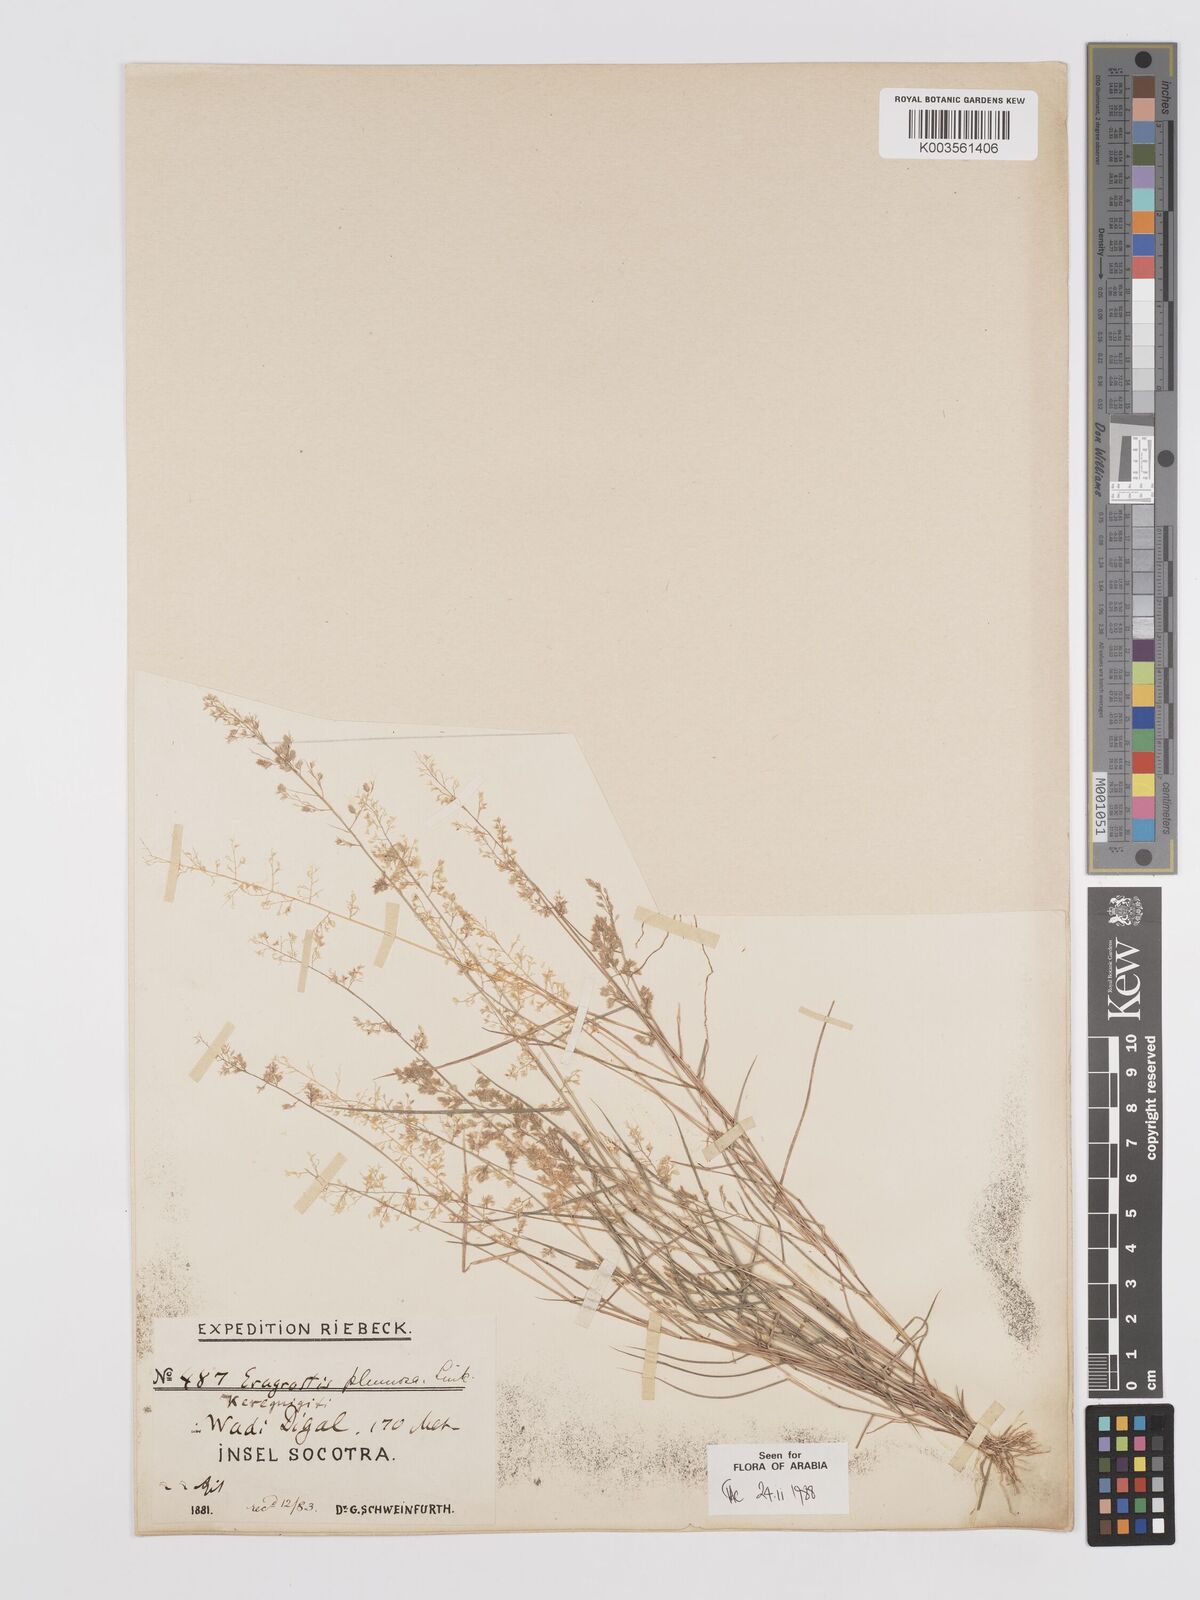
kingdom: Plantae
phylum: Tracheophyta
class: Liliopsida
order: Poales
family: Poaceae
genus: Eragrostis
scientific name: Eragrostis ciliaris
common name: Gophertail lovegrass
